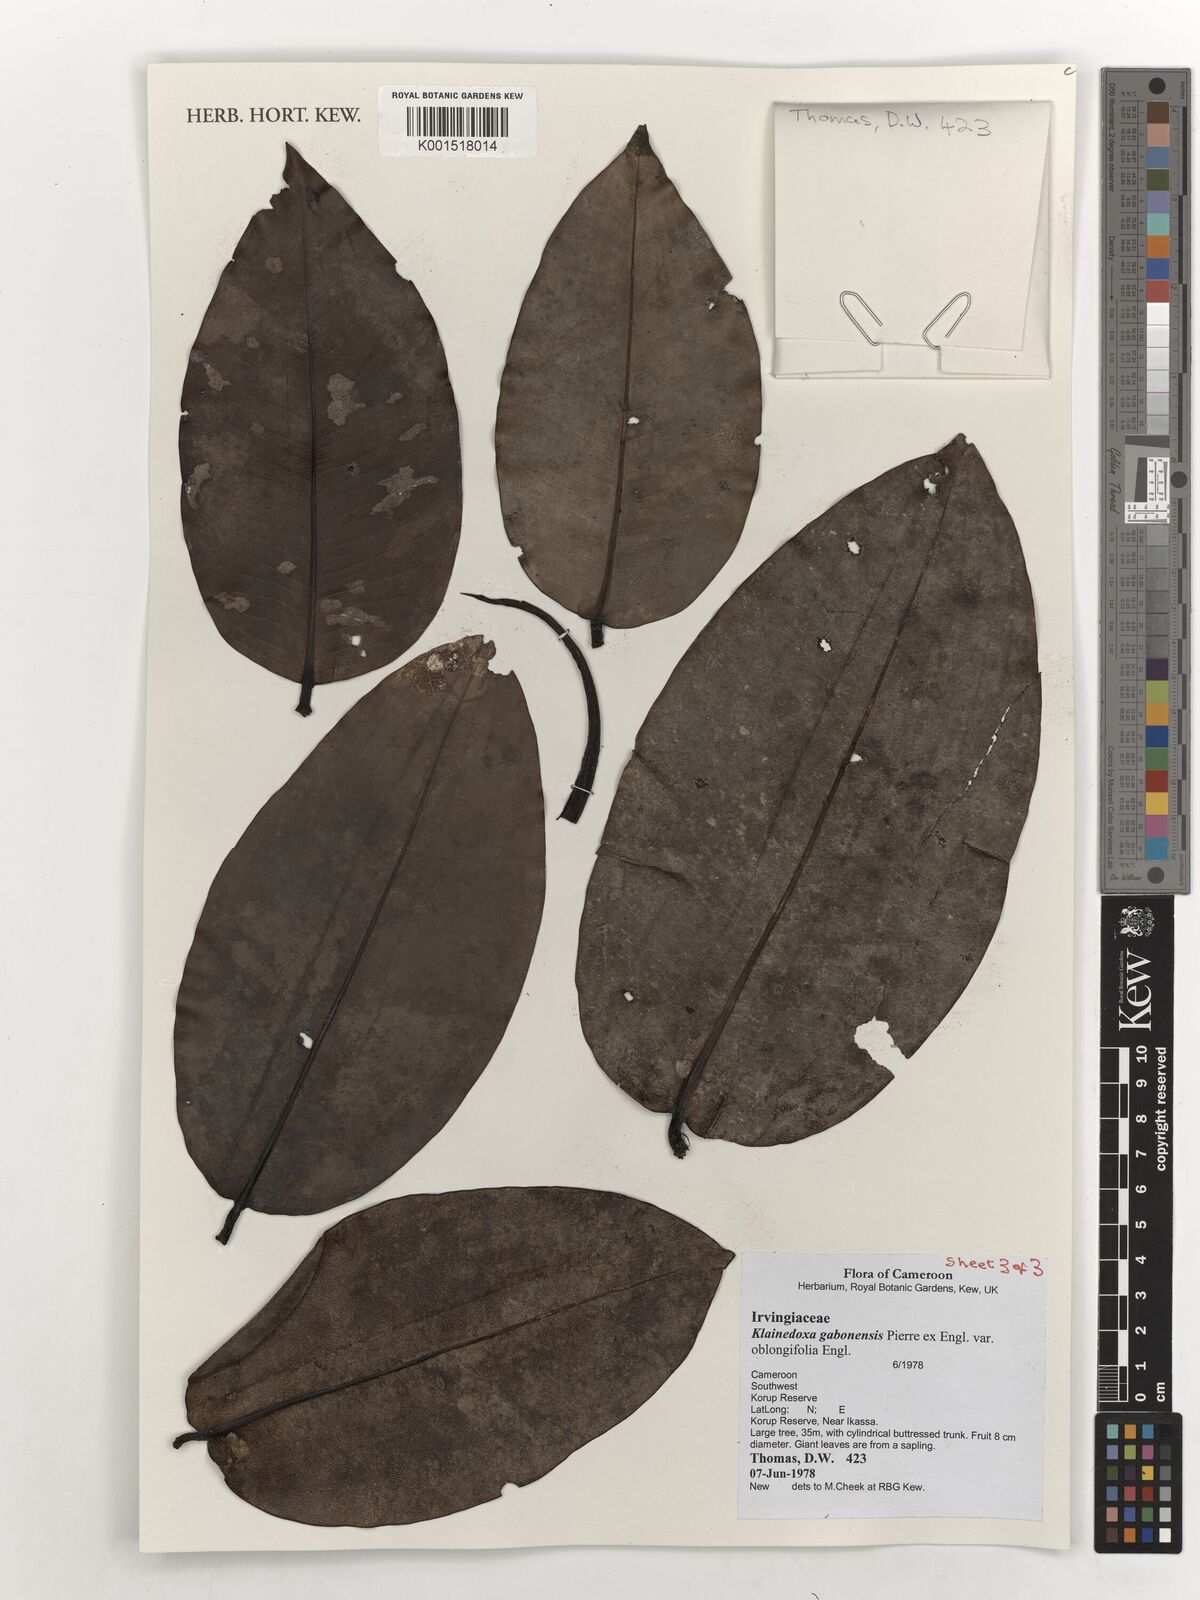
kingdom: Plantae
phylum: Tracheophyta
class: Magnoliopsida
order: Malpighiales
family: Irvingiaceae
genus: Klainedoxa
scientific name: Klainedoxa gabonensis
